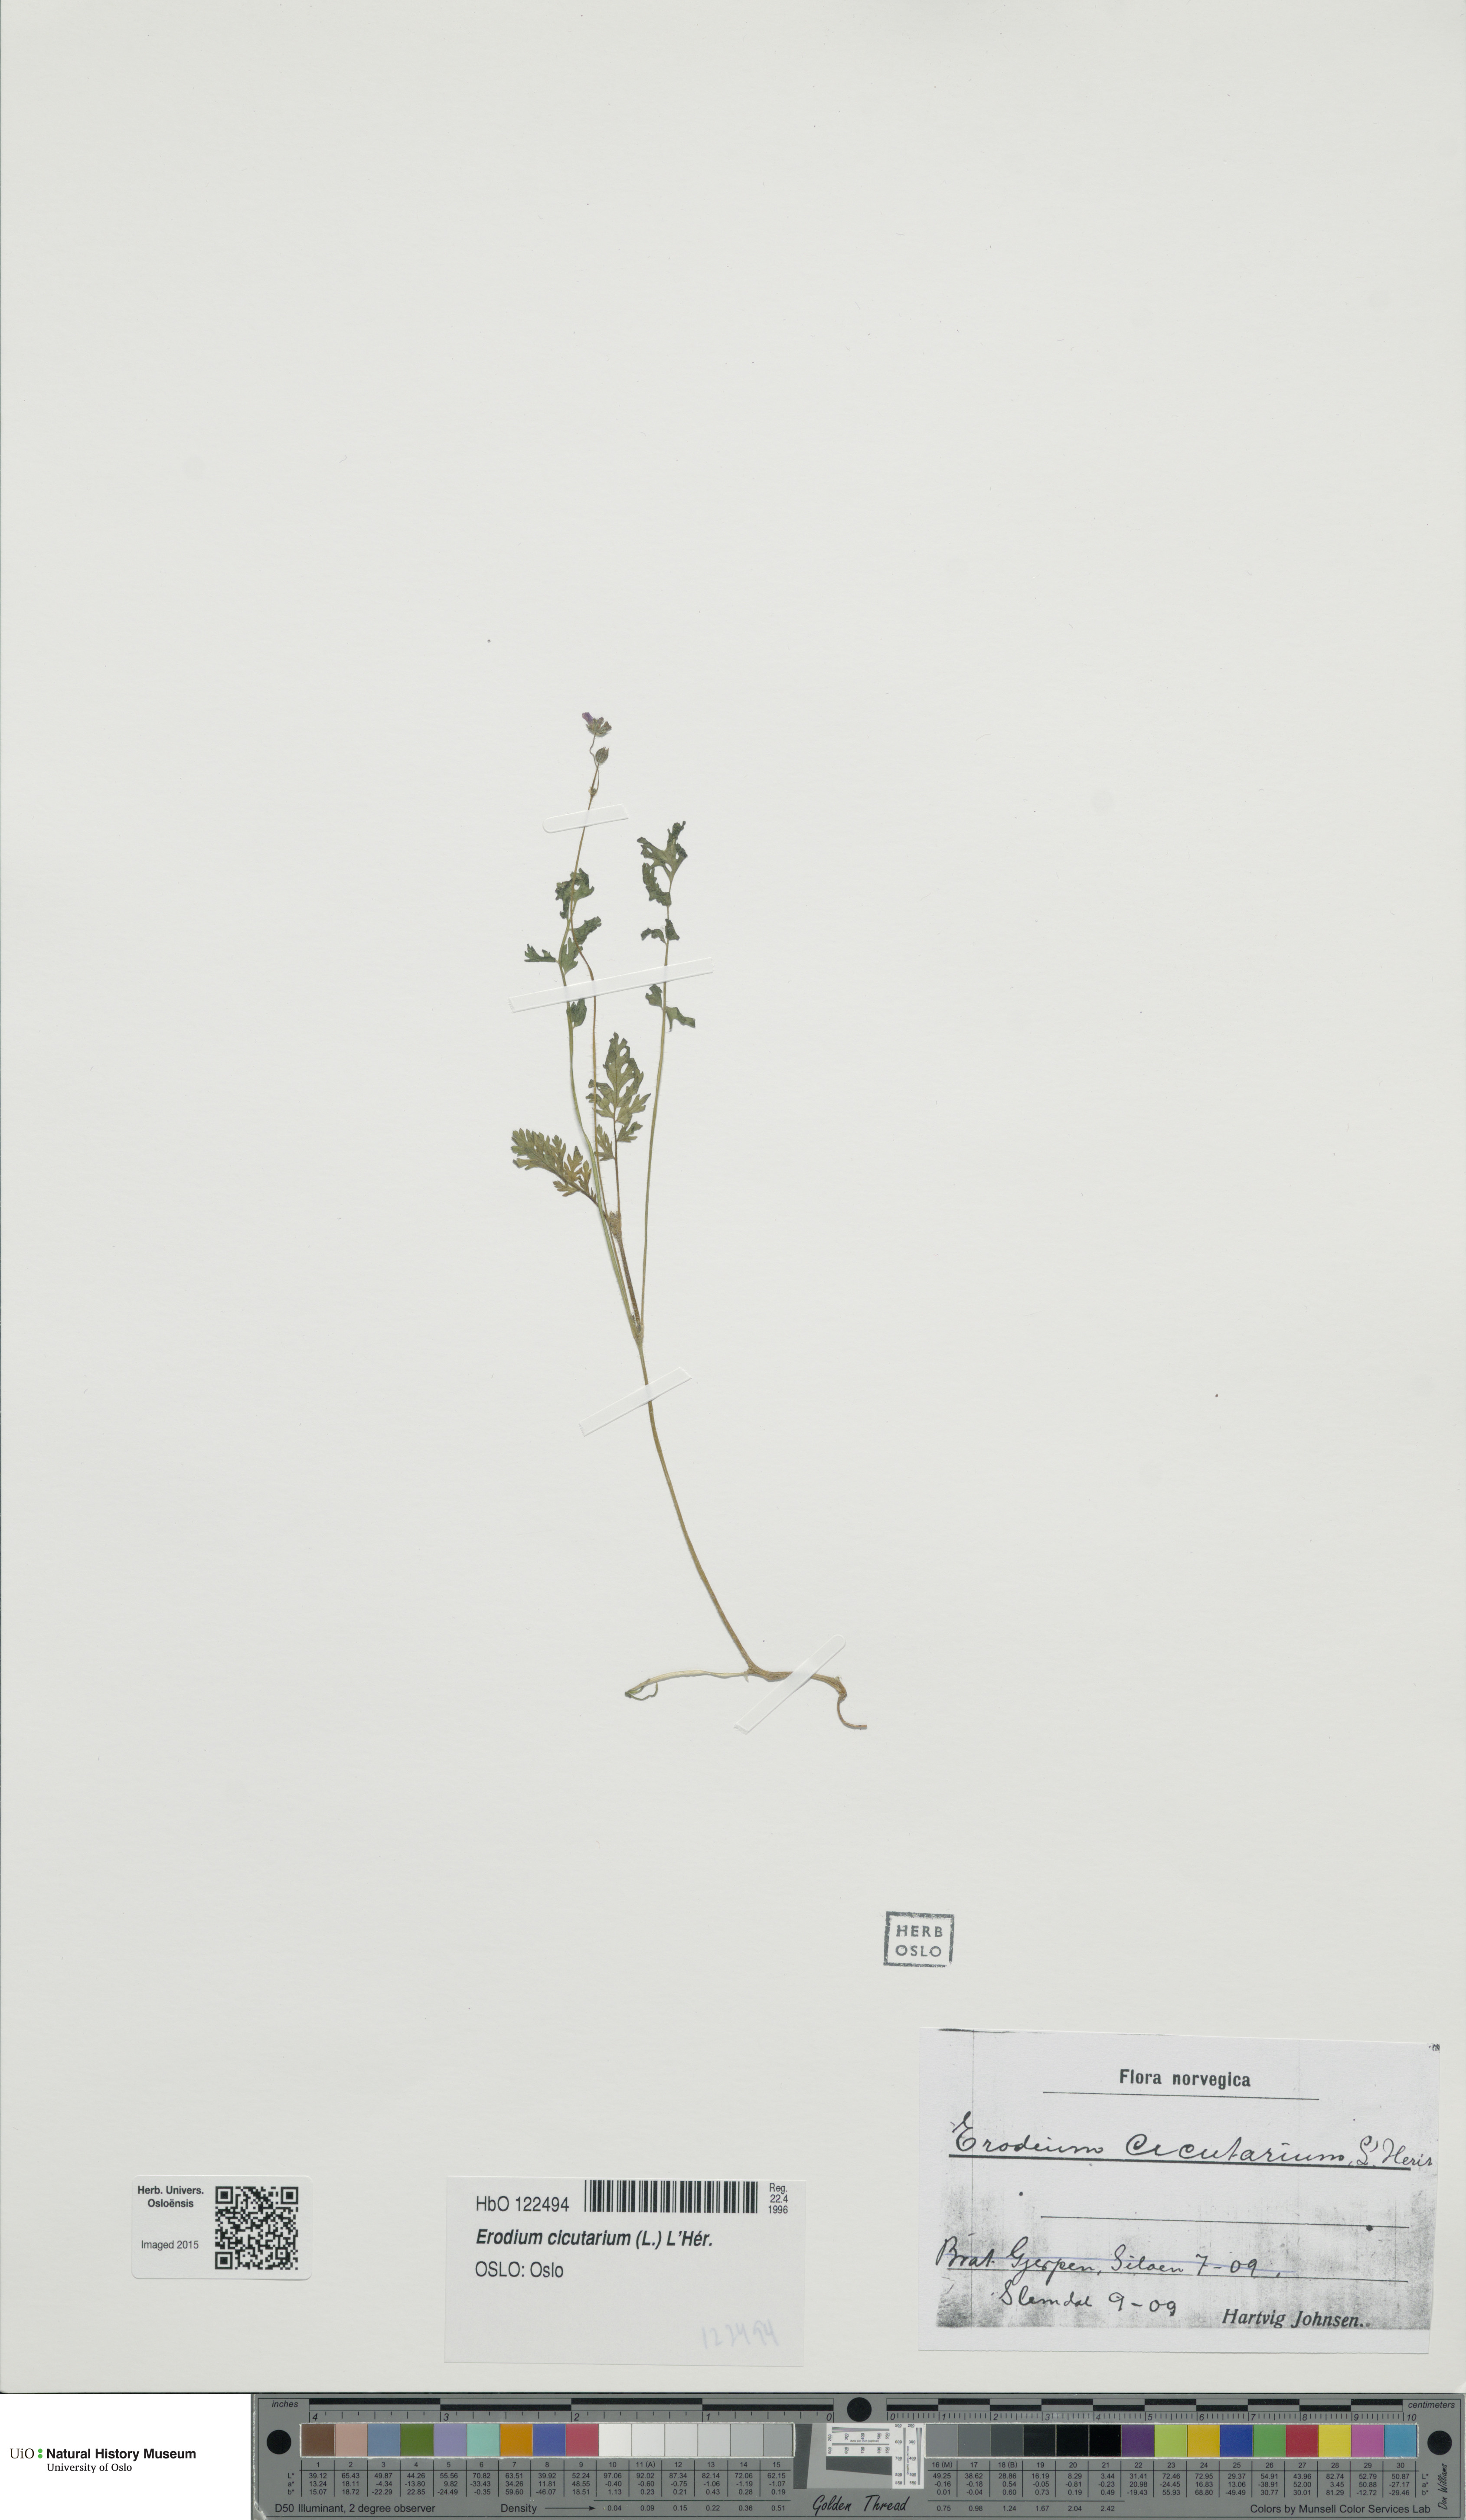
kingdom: Plantae
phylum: Tracheophyta
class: Magnoliopsida
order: Geraniales
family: Geraniaceae
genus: Erodium
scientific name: Erodium cicutarium
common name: Common stork's-bill
